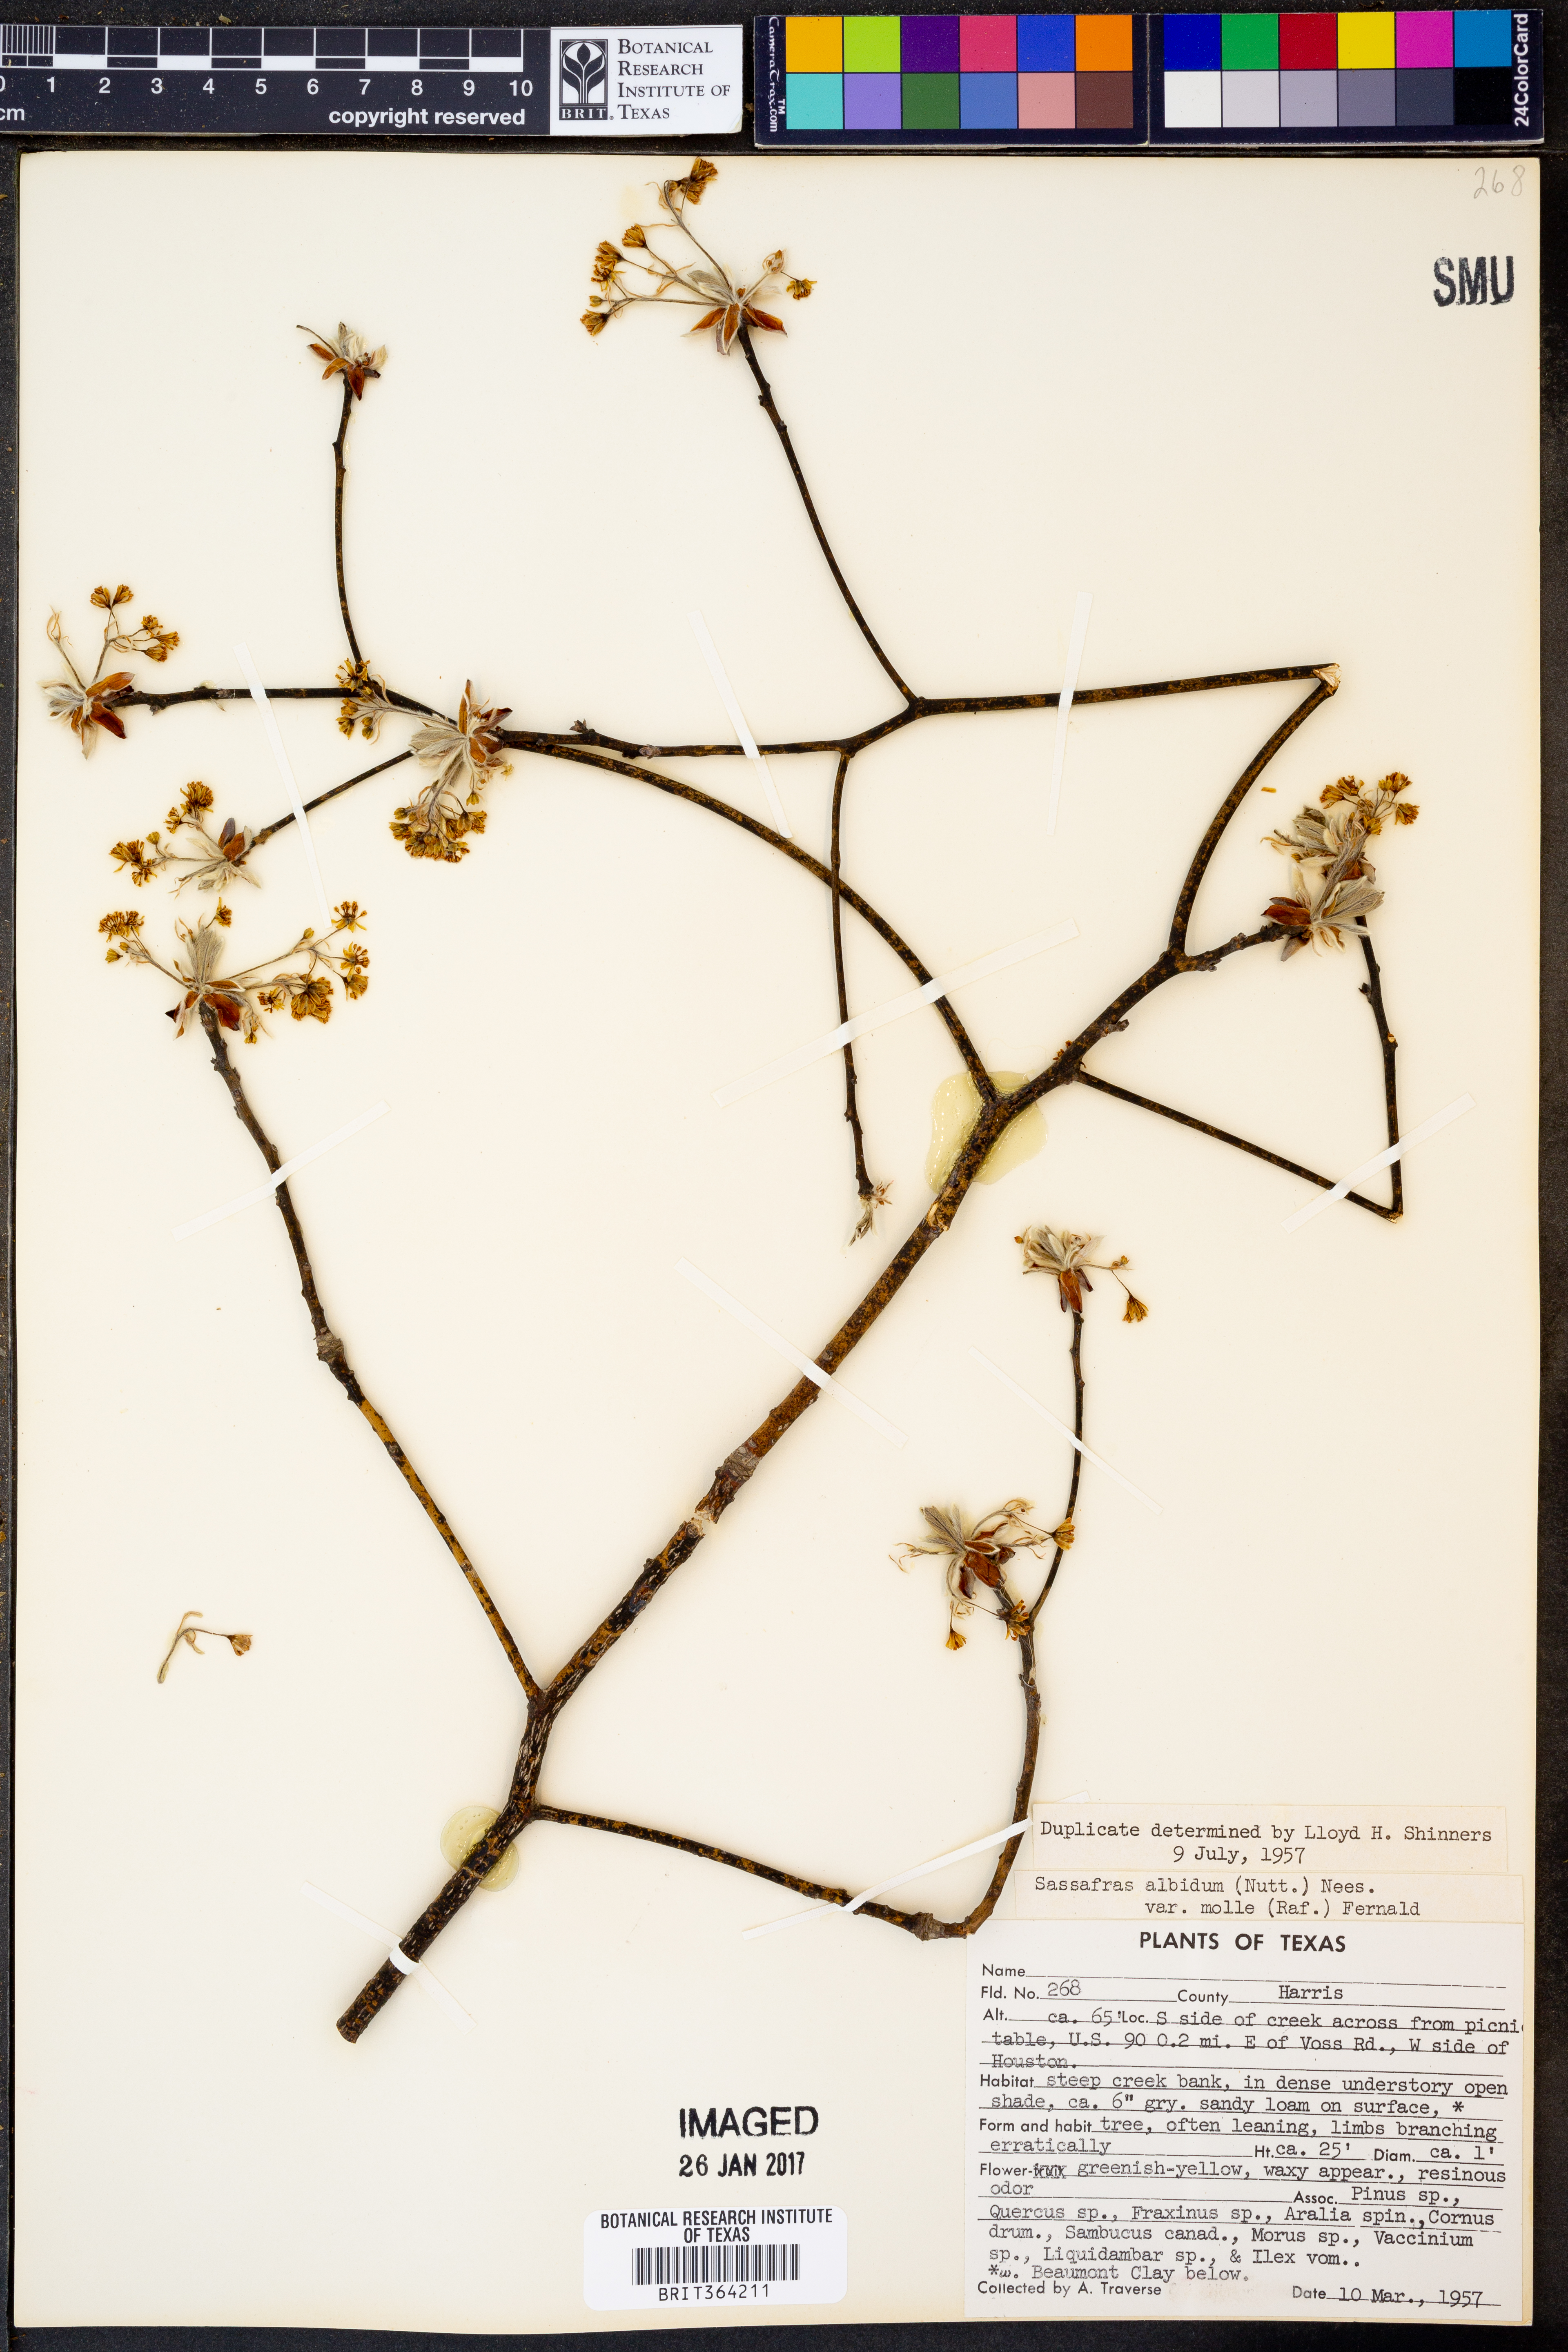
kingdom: Plantae
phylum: Tracheophyta
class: Magnoliopsida
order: Laurales
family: Lauraceae
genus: Sassafras
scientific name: Sassafras albidum
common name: Sassafras
